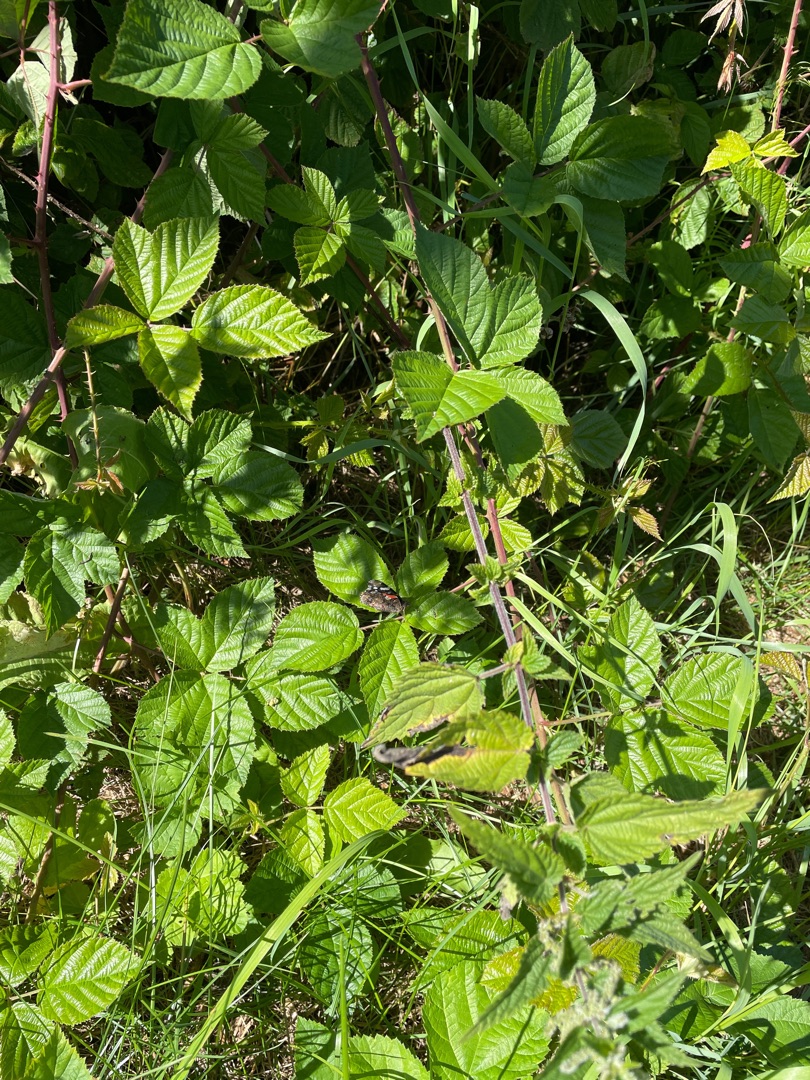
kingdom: Animalia
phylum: Arthropoda
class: Insecta
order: Lepidoptera
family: Nymphalidae
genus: Vanessa
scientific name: Vanessa atalanta
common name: Admiral
